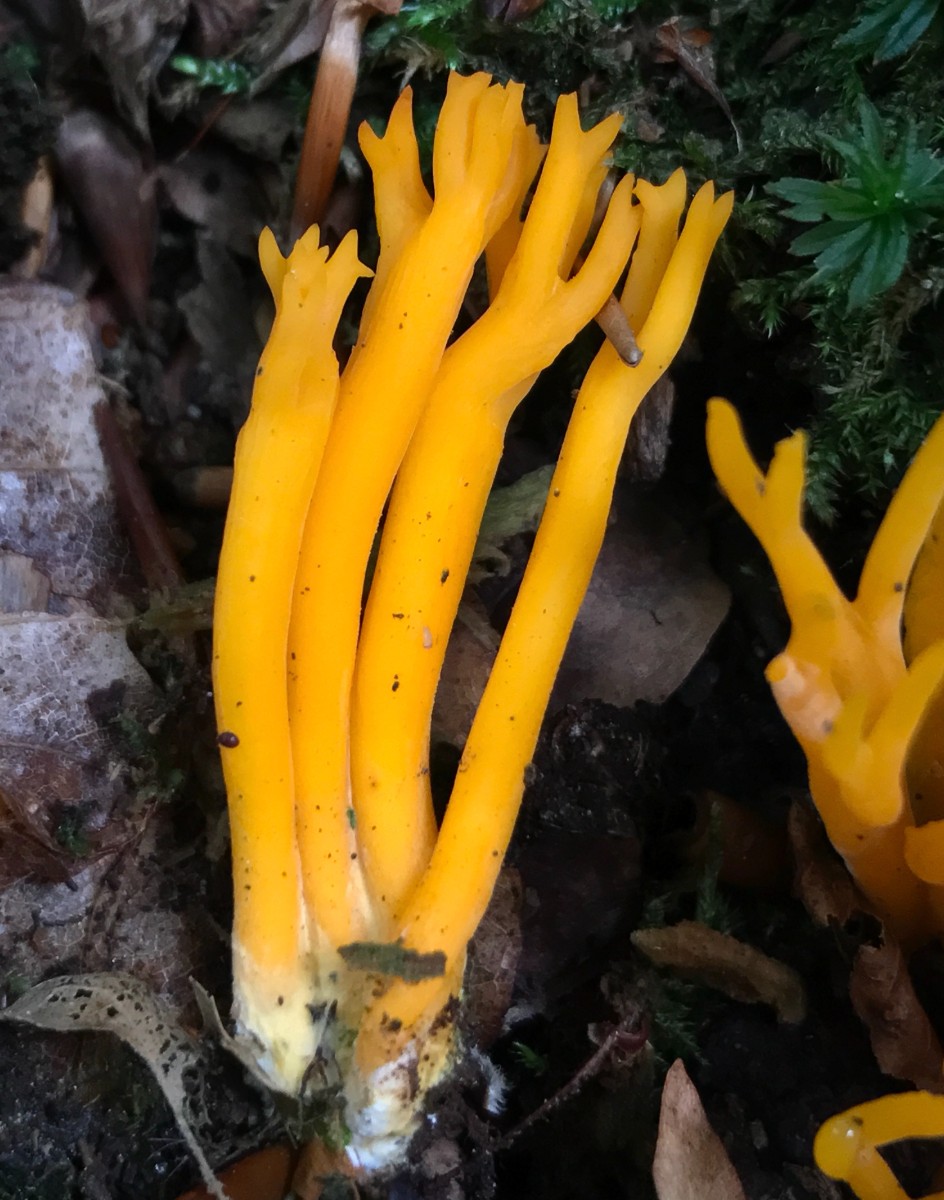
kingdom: Fungi
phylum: Basidiomycota
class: Dacrymycetes
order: Dacrymycetales
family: Dacrymycetaceae
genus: Calocera
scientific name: Calocera viscosa
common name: almindelig guldgaffel
